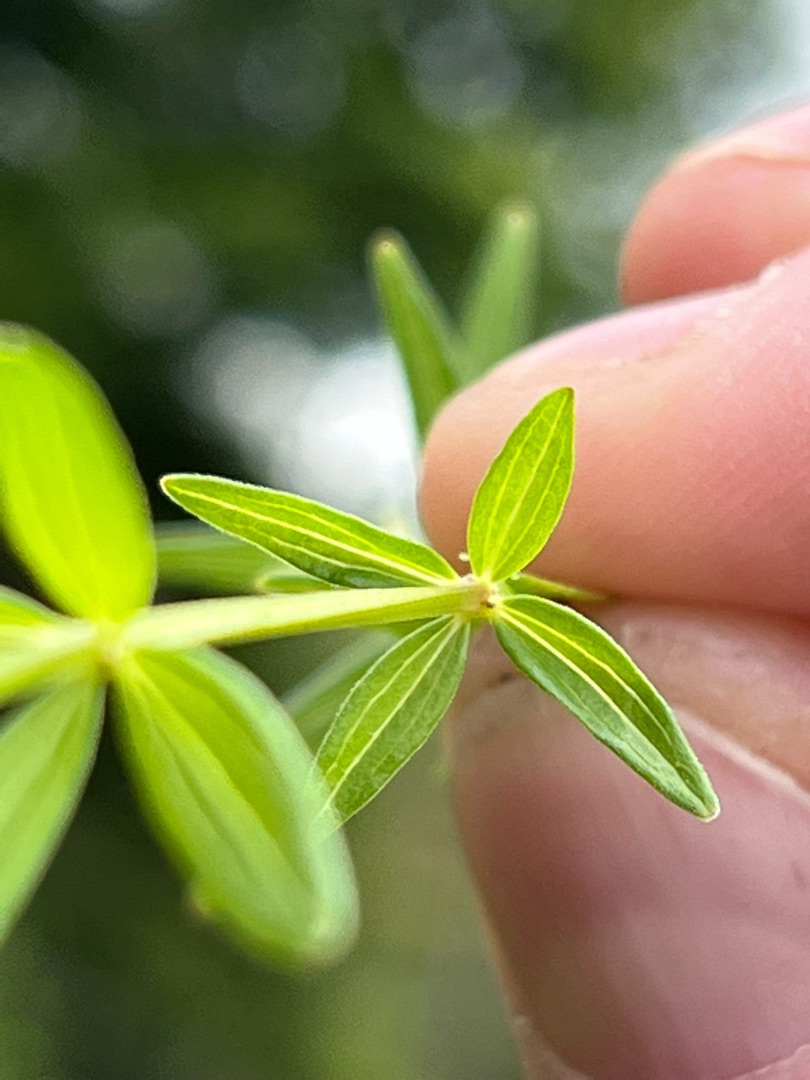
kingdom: Plantae
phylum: Tracheophyta
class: Magnoliopsida
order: Gentianales
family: Rubiaceae
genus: Galium
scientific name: Galium boreale
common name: Trenervet snerre
